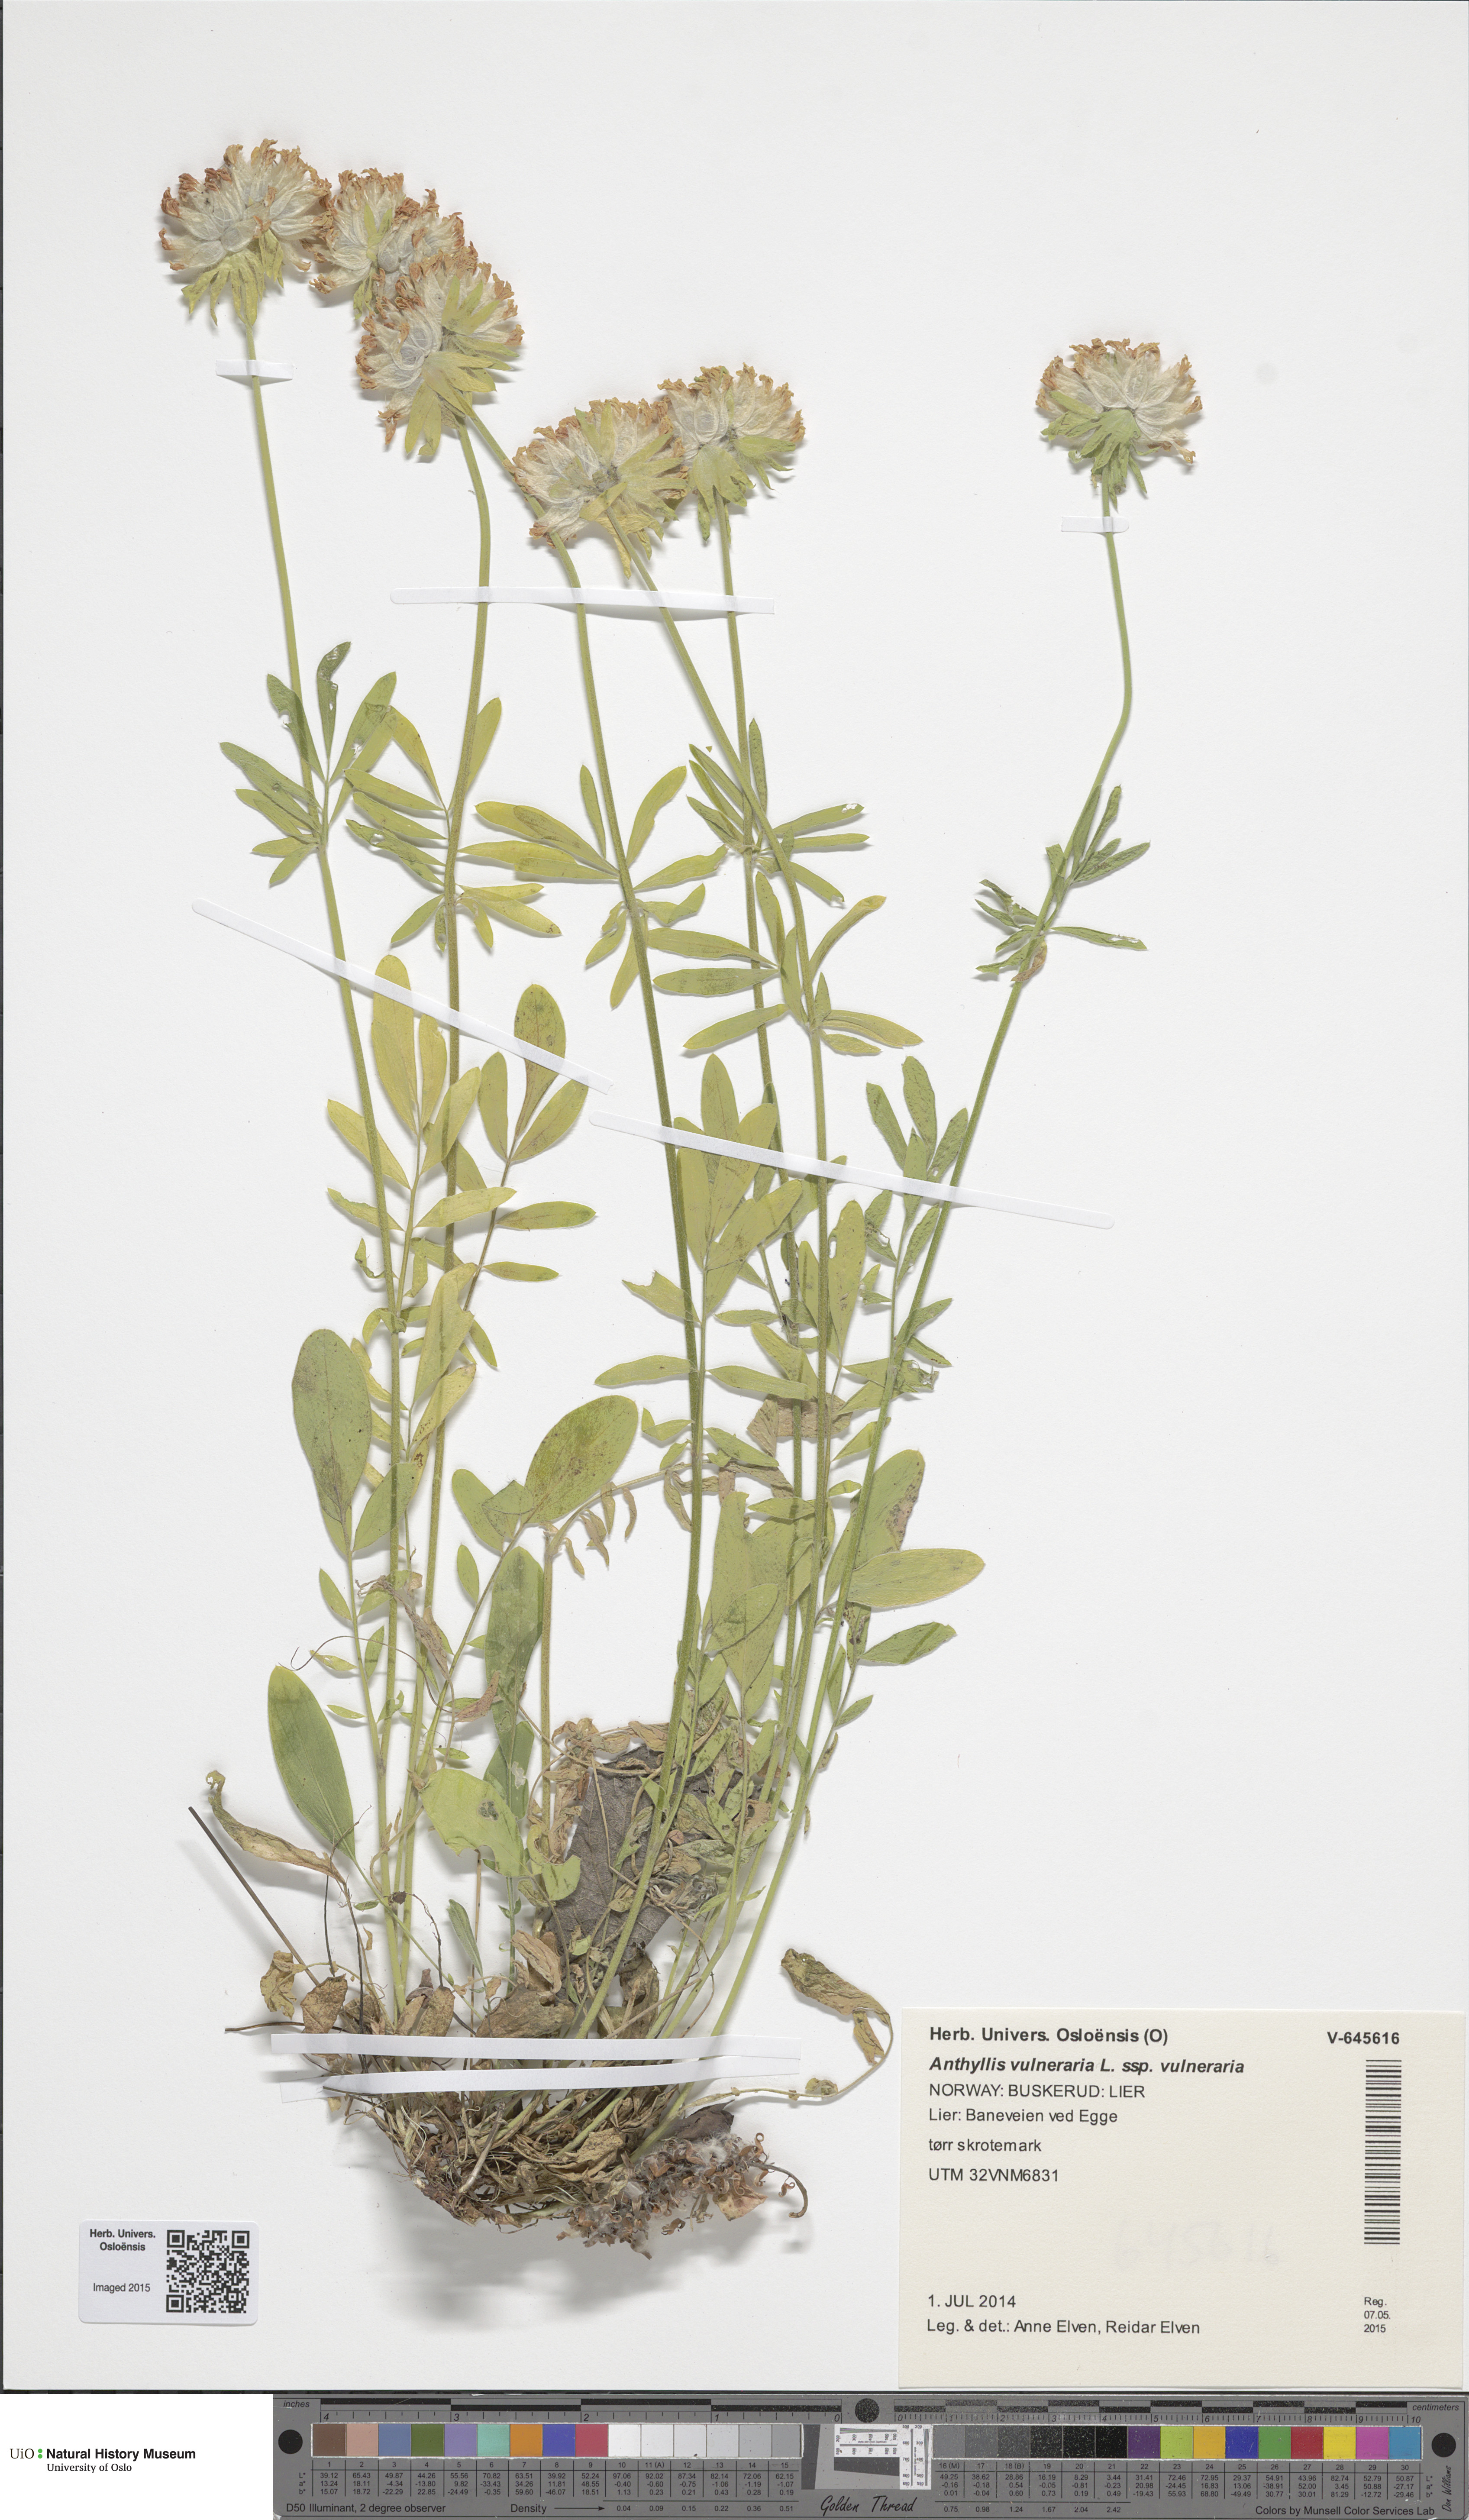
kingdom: Plantae
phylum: Tracheophyta
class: Magnoliopsida
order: Fabales
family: Fabaceae
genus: Anthyllis
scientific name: Anthyllis vulneraria
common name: Kidney vetch
